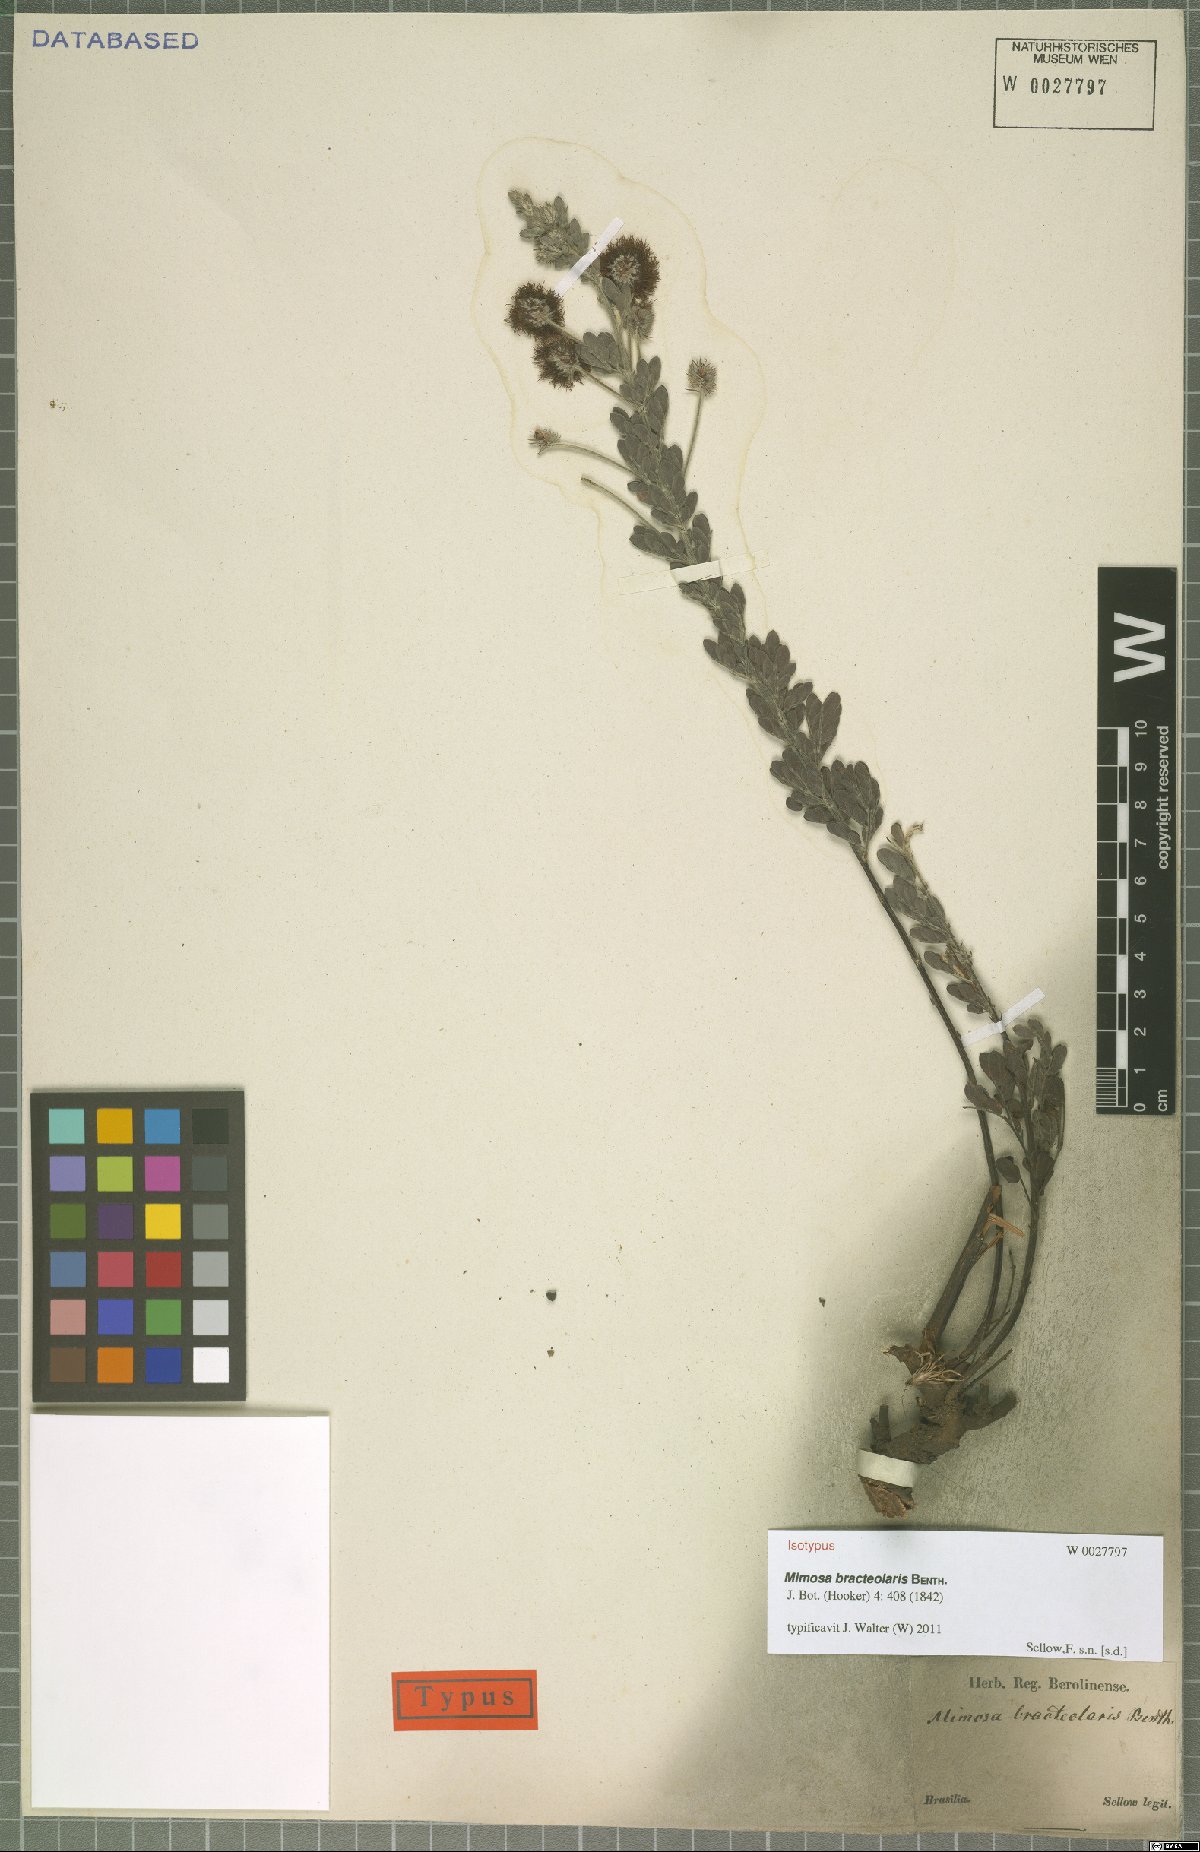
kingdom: Plantae
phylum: Tracheophyta
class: Magnoliopsida
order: Fabales
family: Fabaceae
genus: Mimosa
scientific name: Mimosa bracteolaris
